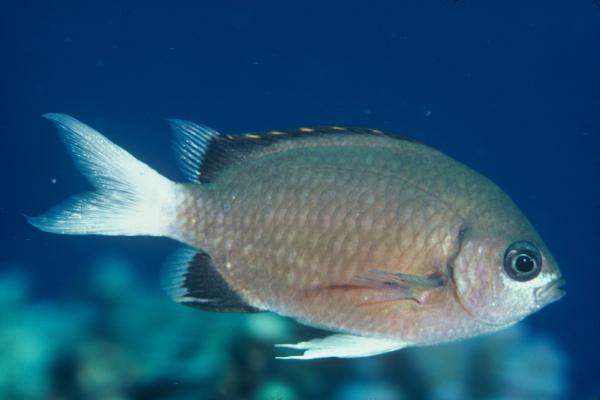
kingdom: Animalia
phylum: Chordata
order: Perciformes
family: Pomacentridae
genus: Chromis
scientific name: Chromis pembae
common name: Pemba chromis
